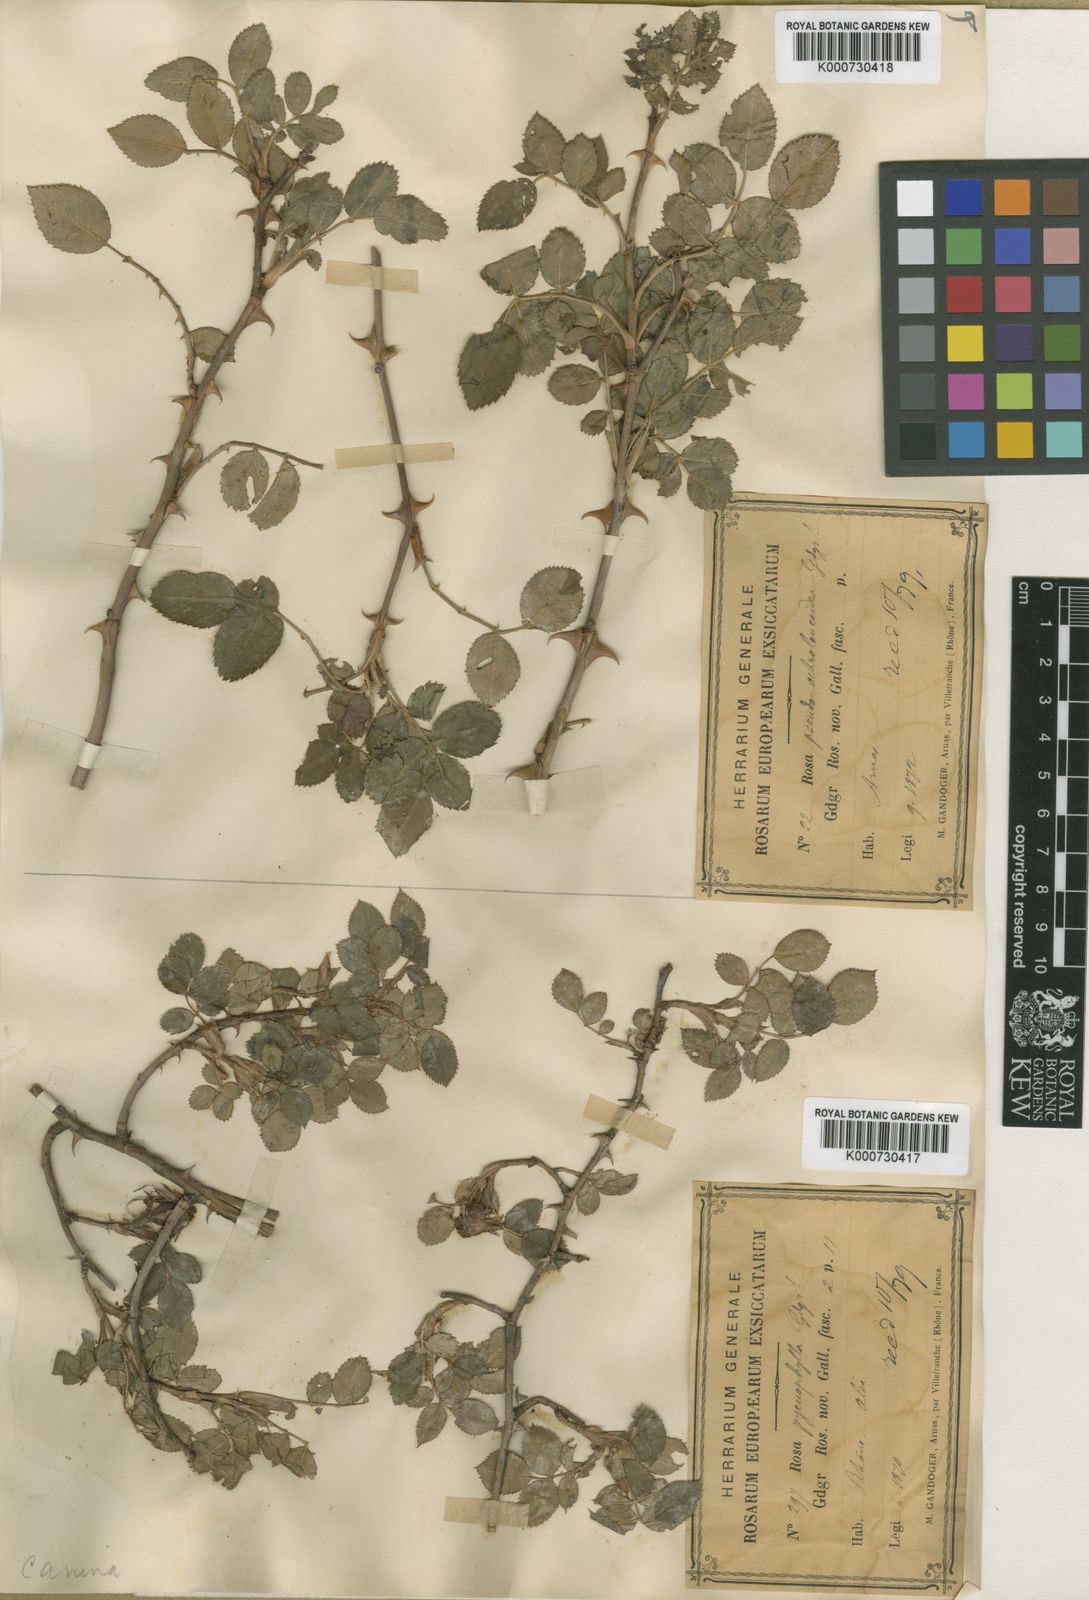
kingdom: Plantae
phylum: Tracheophyta
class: Magnoliopsida
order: Rosales
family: Rosaceae
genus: Rosa
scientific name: Rosa canina
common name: Dog rose
